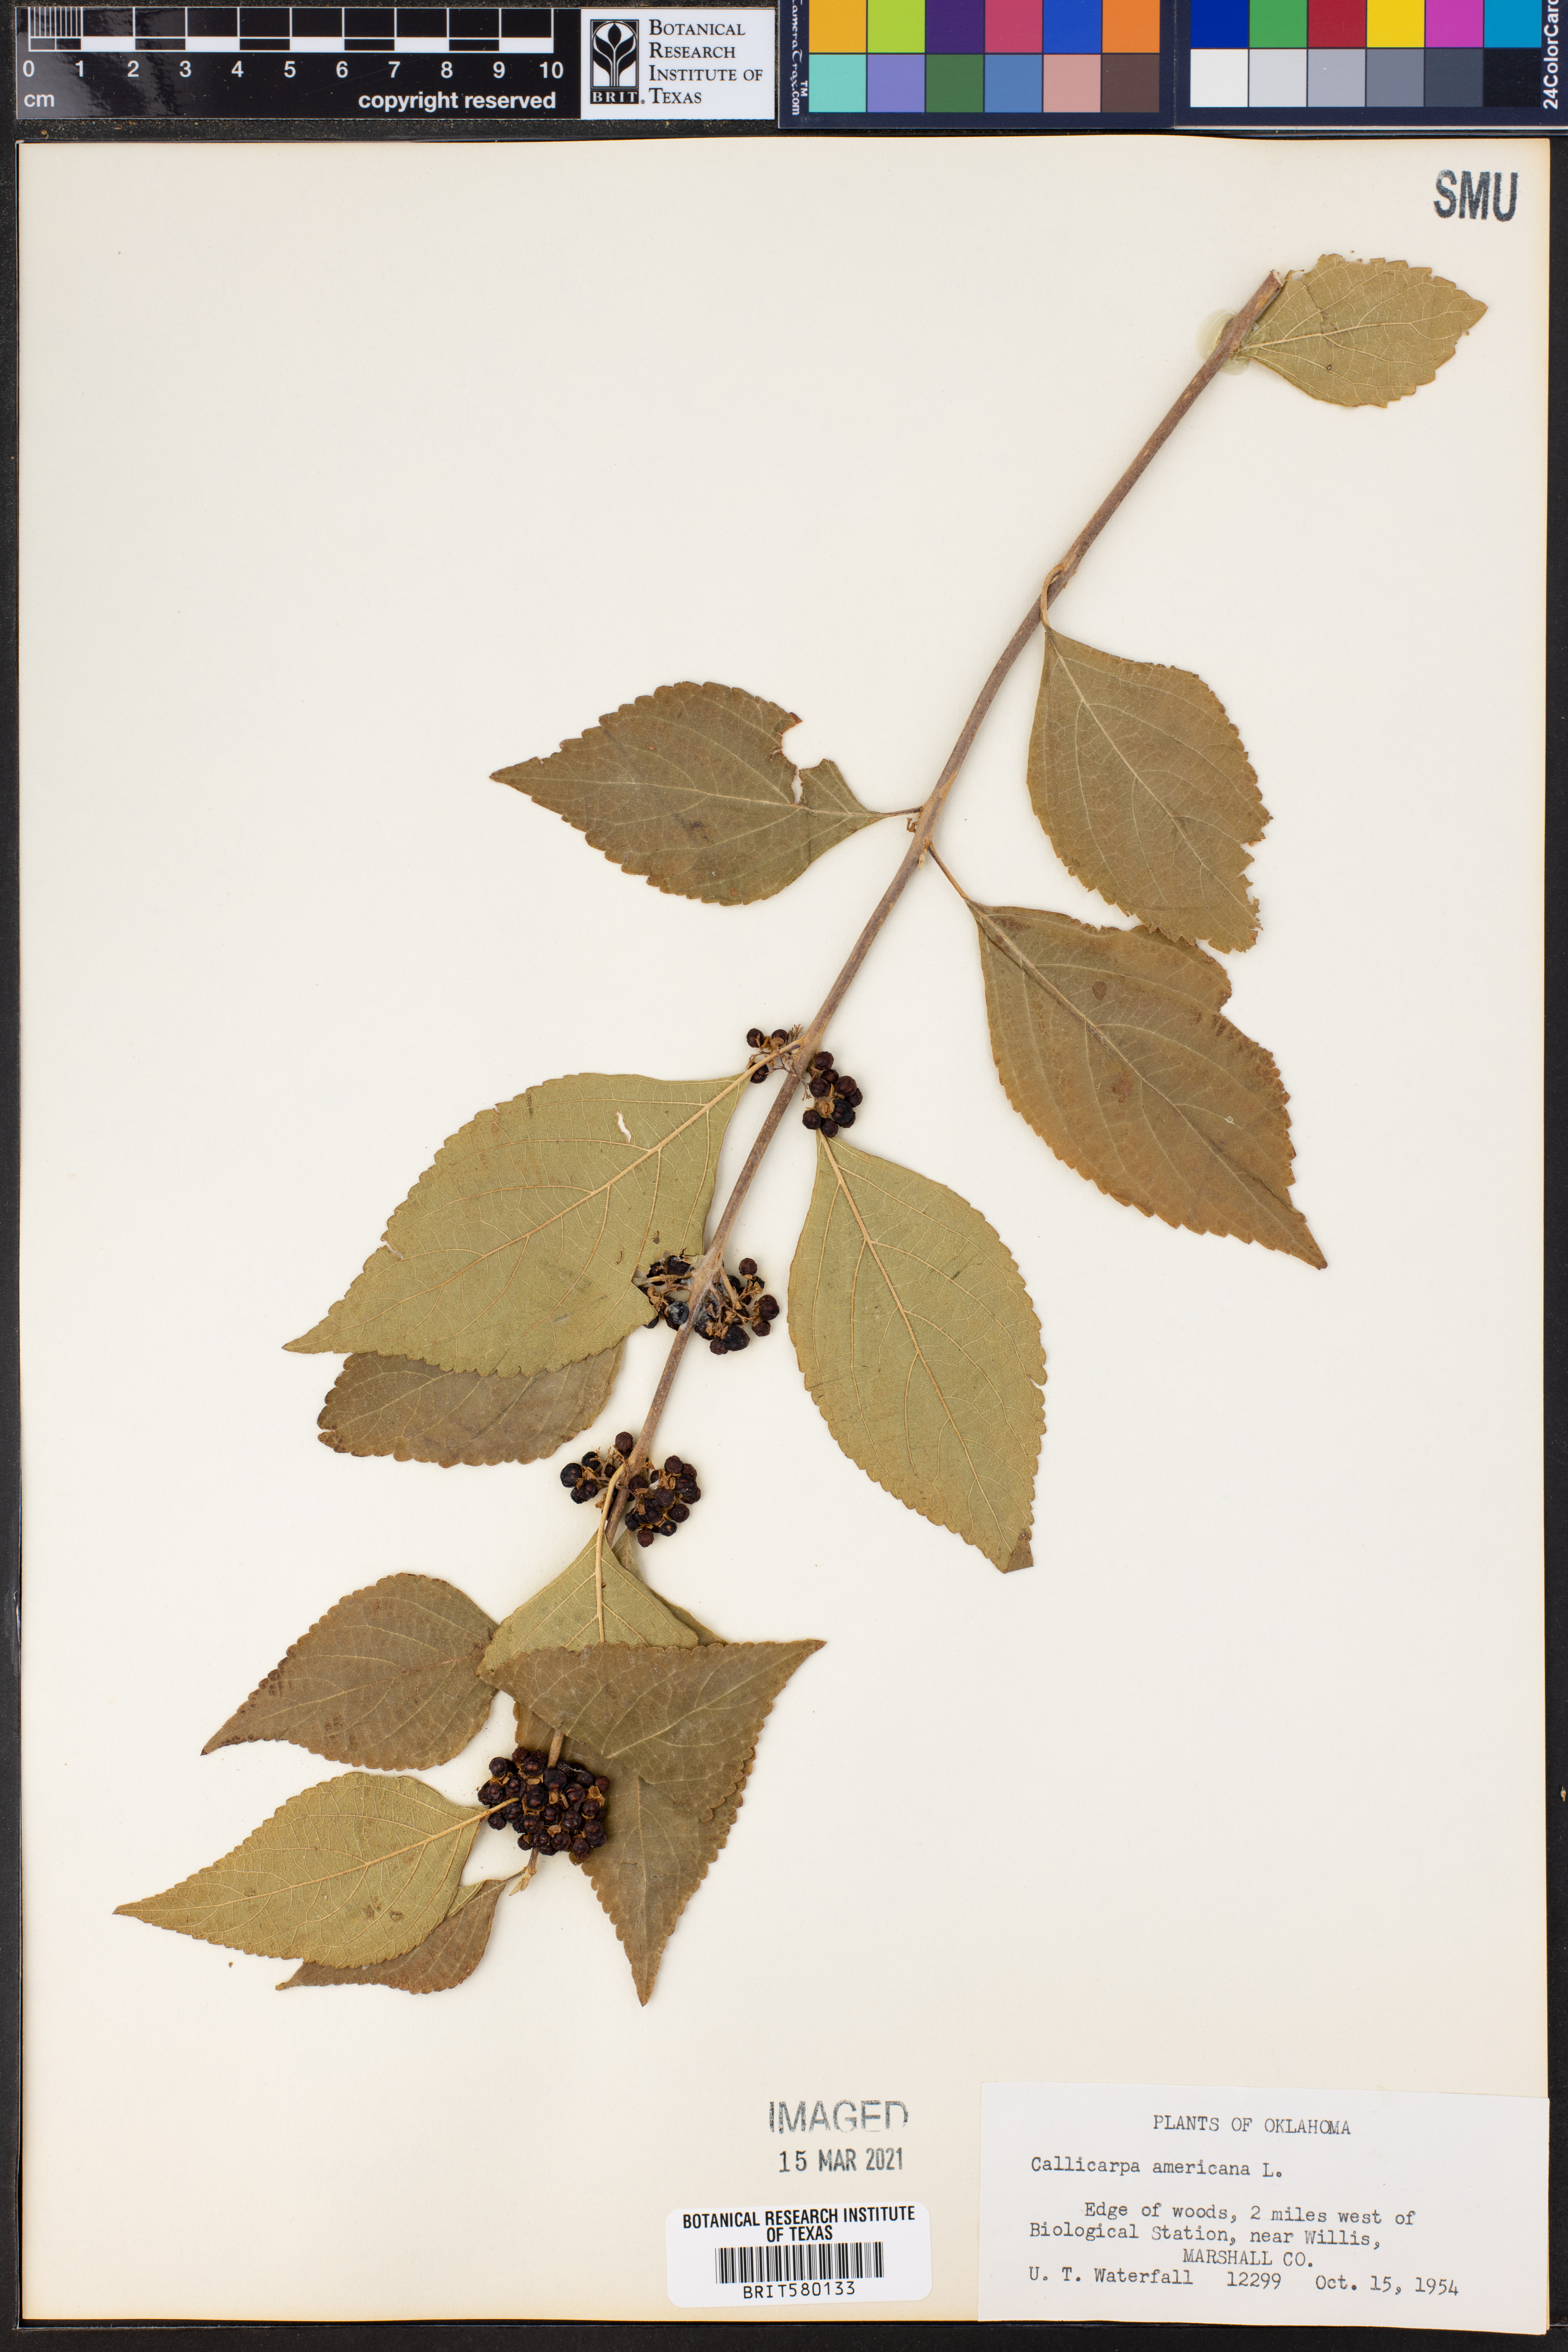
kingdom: Plantae
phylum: Tracheophyta
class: Magnoliopsida
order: Lamiales
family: Lamiaceae
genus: Callicarpa
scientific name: Callicarpa americana
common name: American beautyberry
